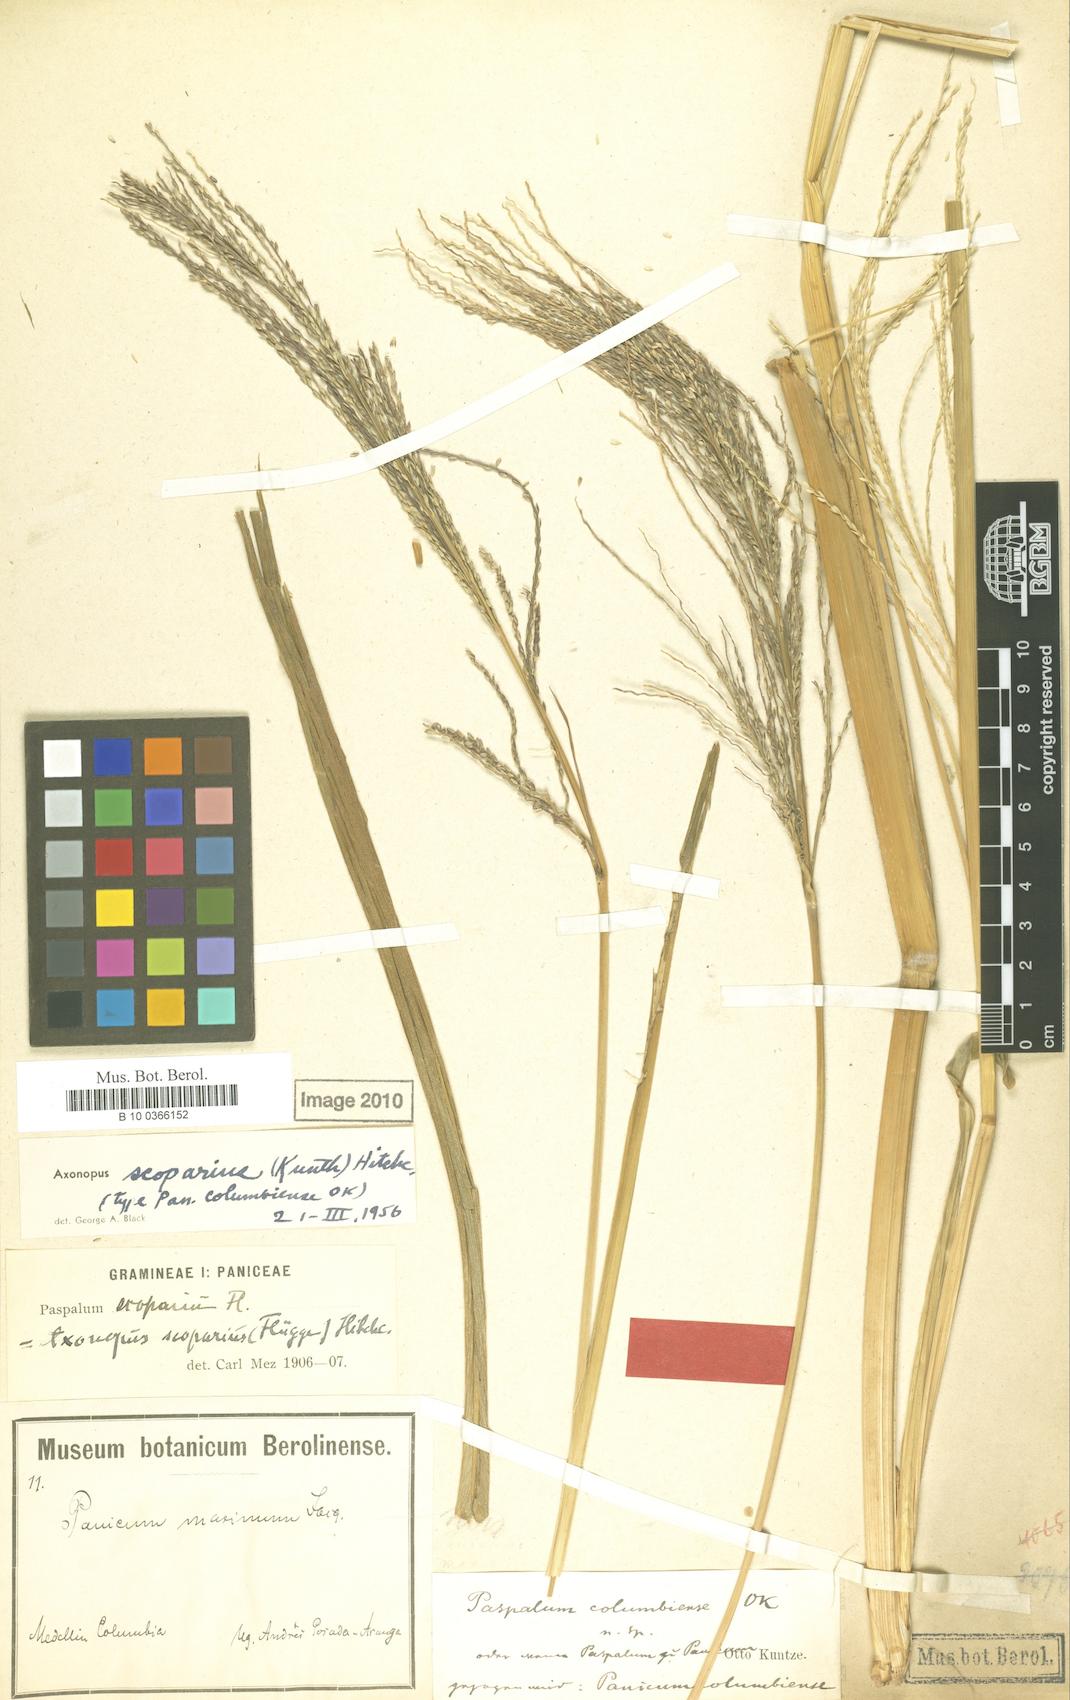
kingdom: Plantae
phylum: Tracheophyta
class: Liliopsida
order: Poales
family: Poaceae
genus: Axonopus
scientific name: Axonopus scoparius
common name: Imperial grass
